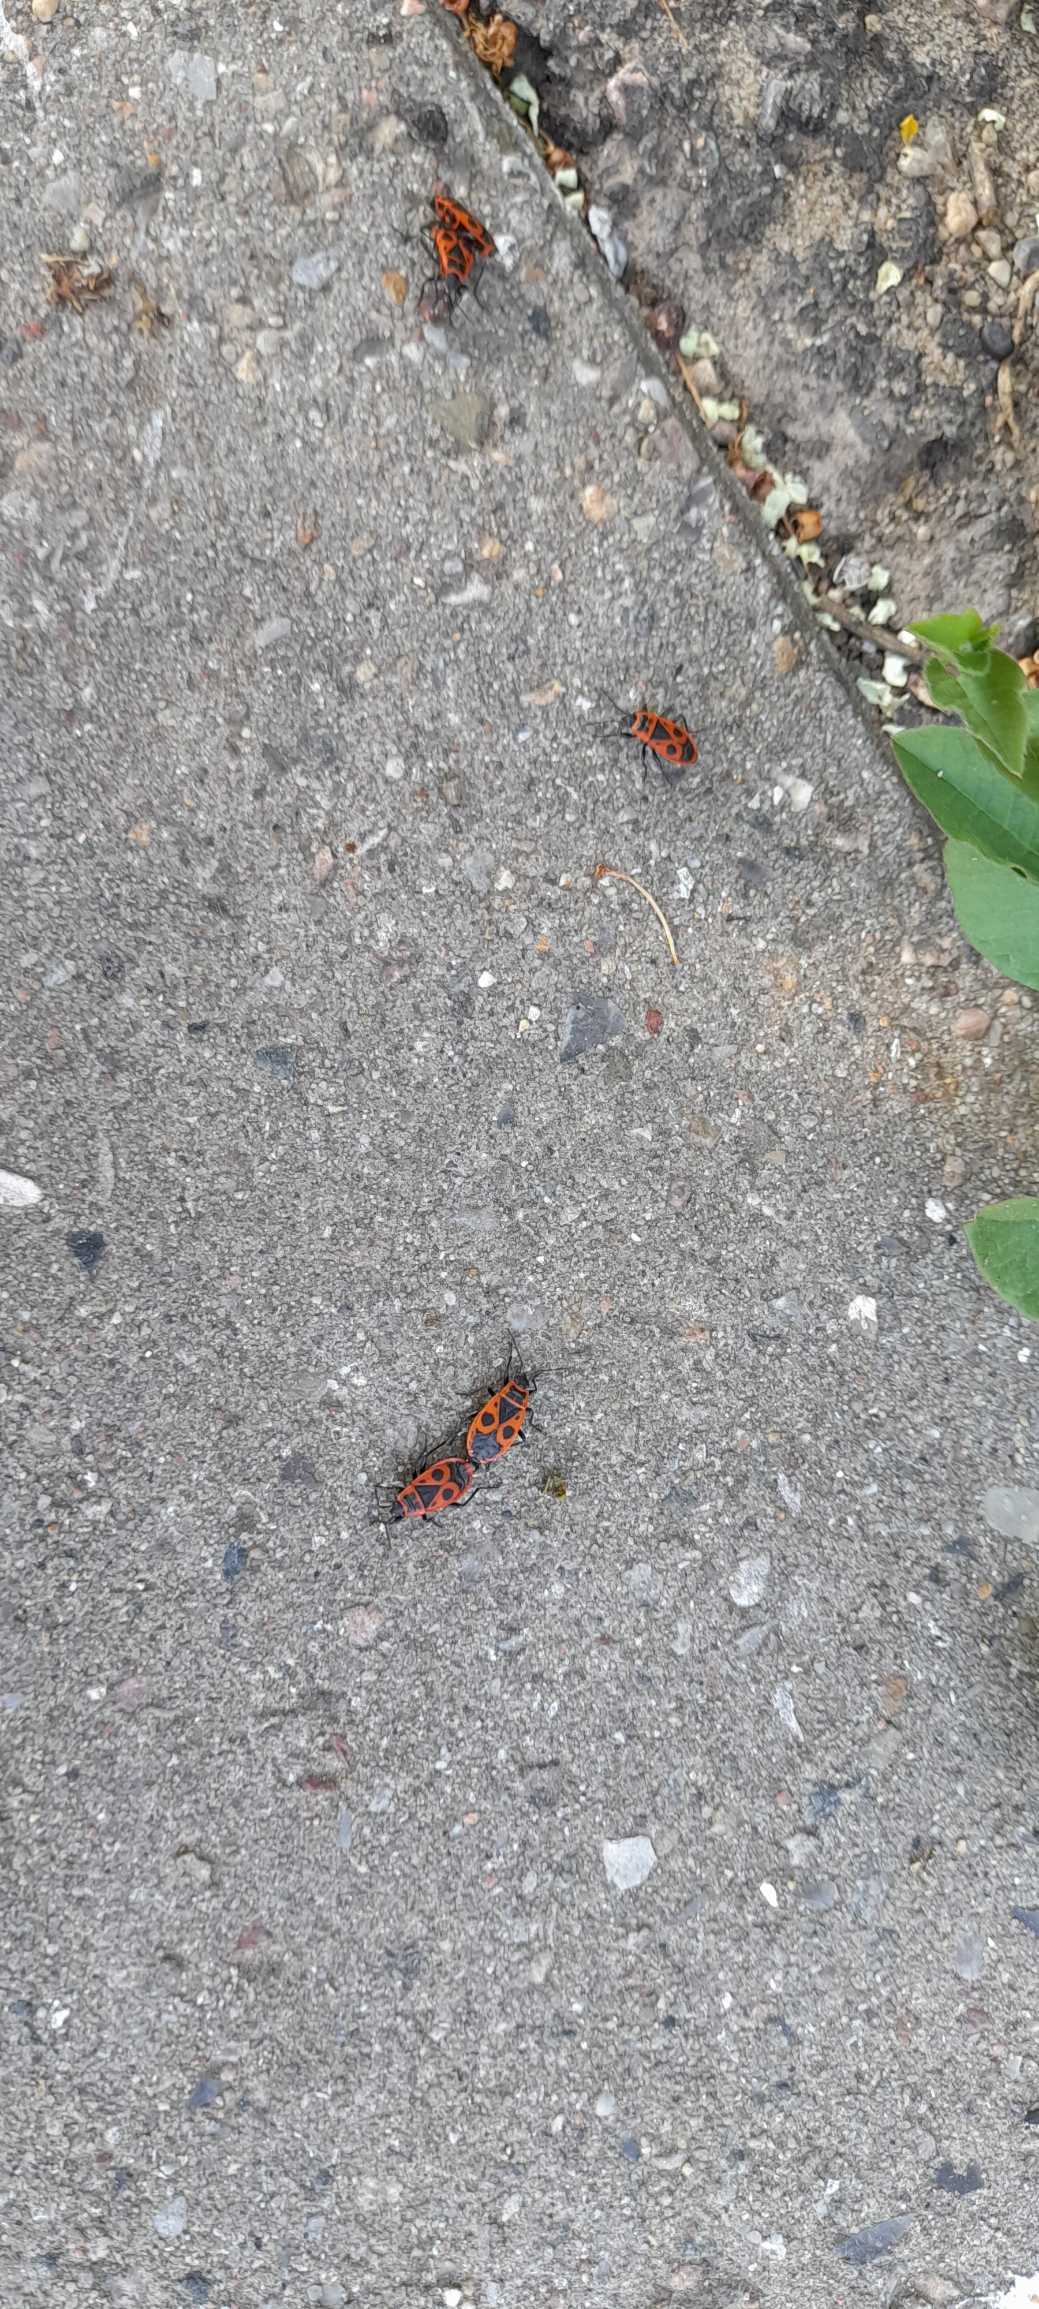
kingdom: Animalia
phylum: Arthropoda
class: Insecta
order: Hemiptera
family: Pyrrhocoridae
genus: Pyrrhocoris
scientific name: Pyrrhocoris apterus
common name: Ildtæge
